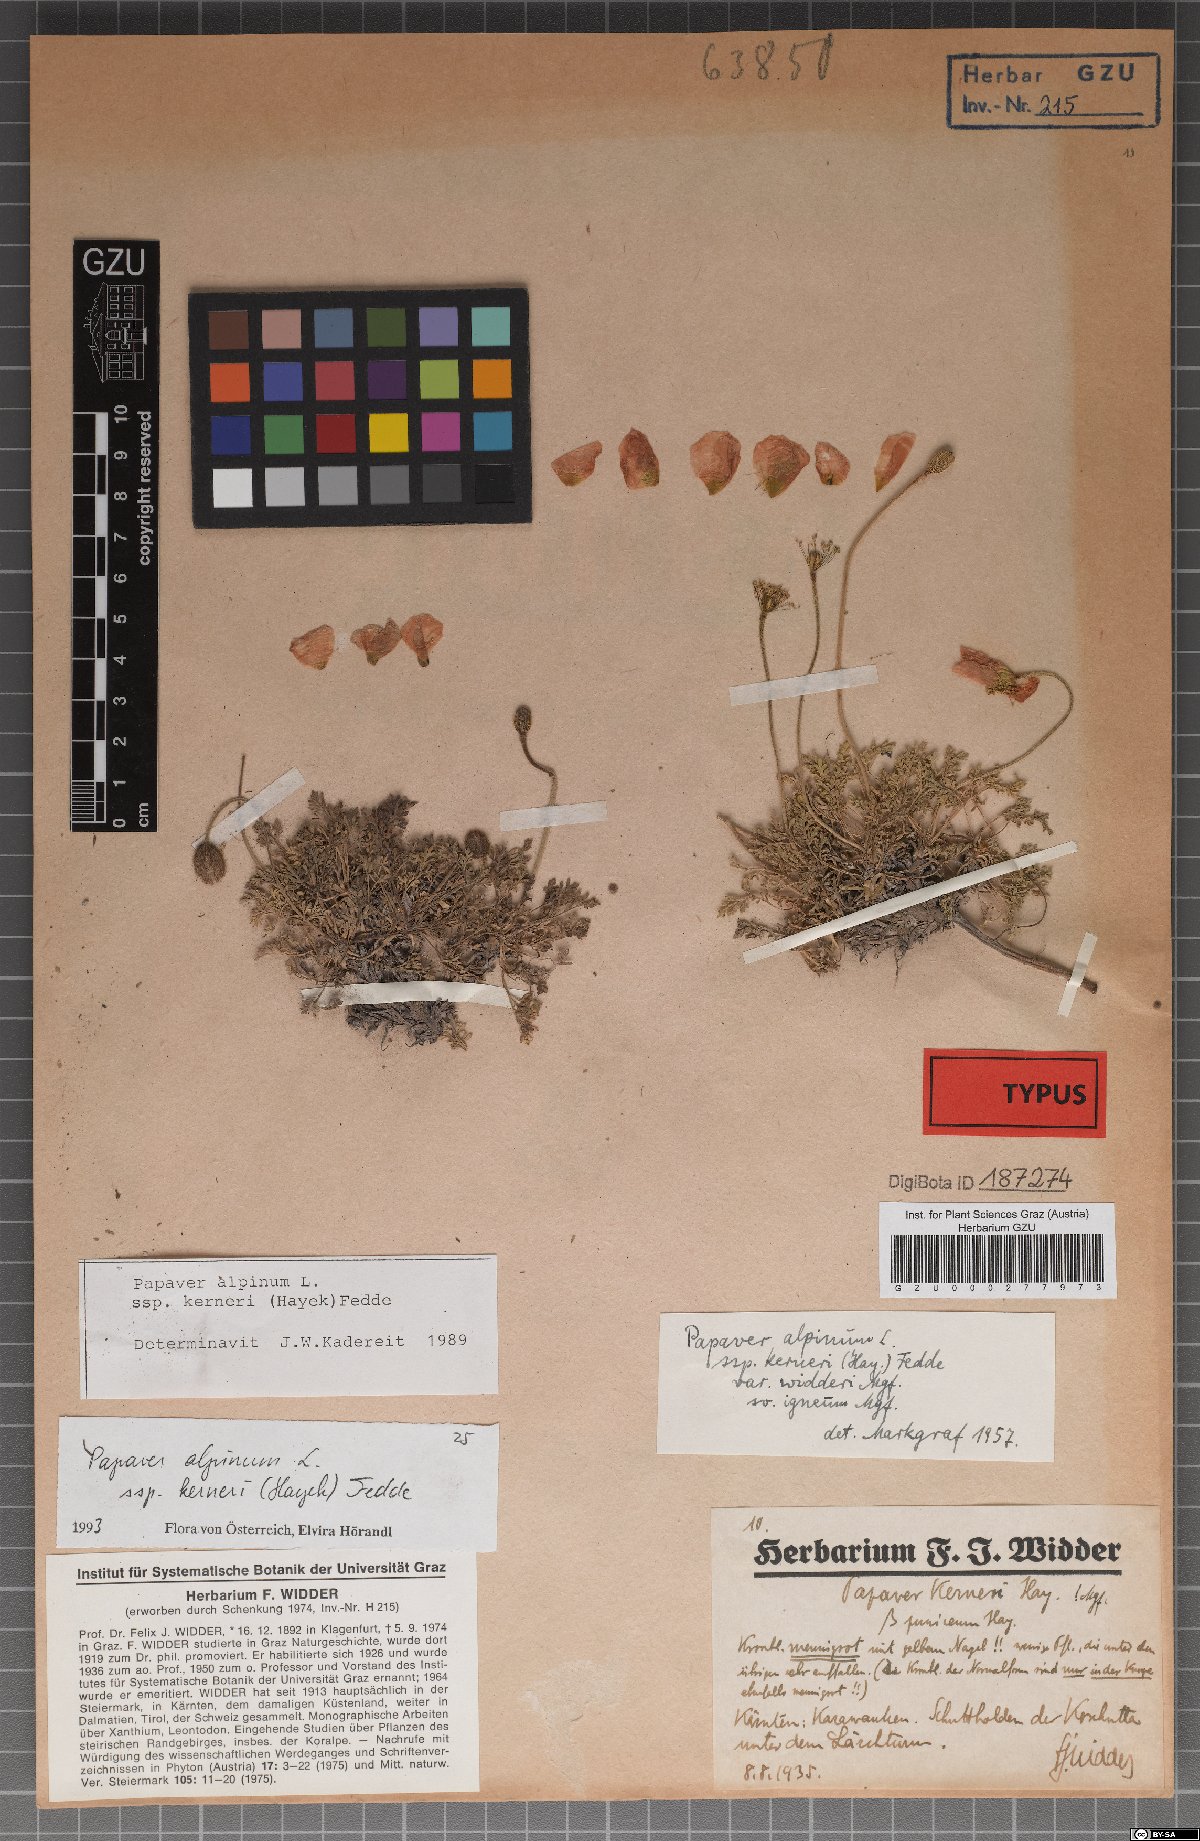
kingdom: Plantae
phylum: Tracheophyta
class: Magnoliopsida
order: Ranunculales
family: Papaveraceae
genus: Papaver
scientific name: Papaver alpinum
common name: Austrian poppy
